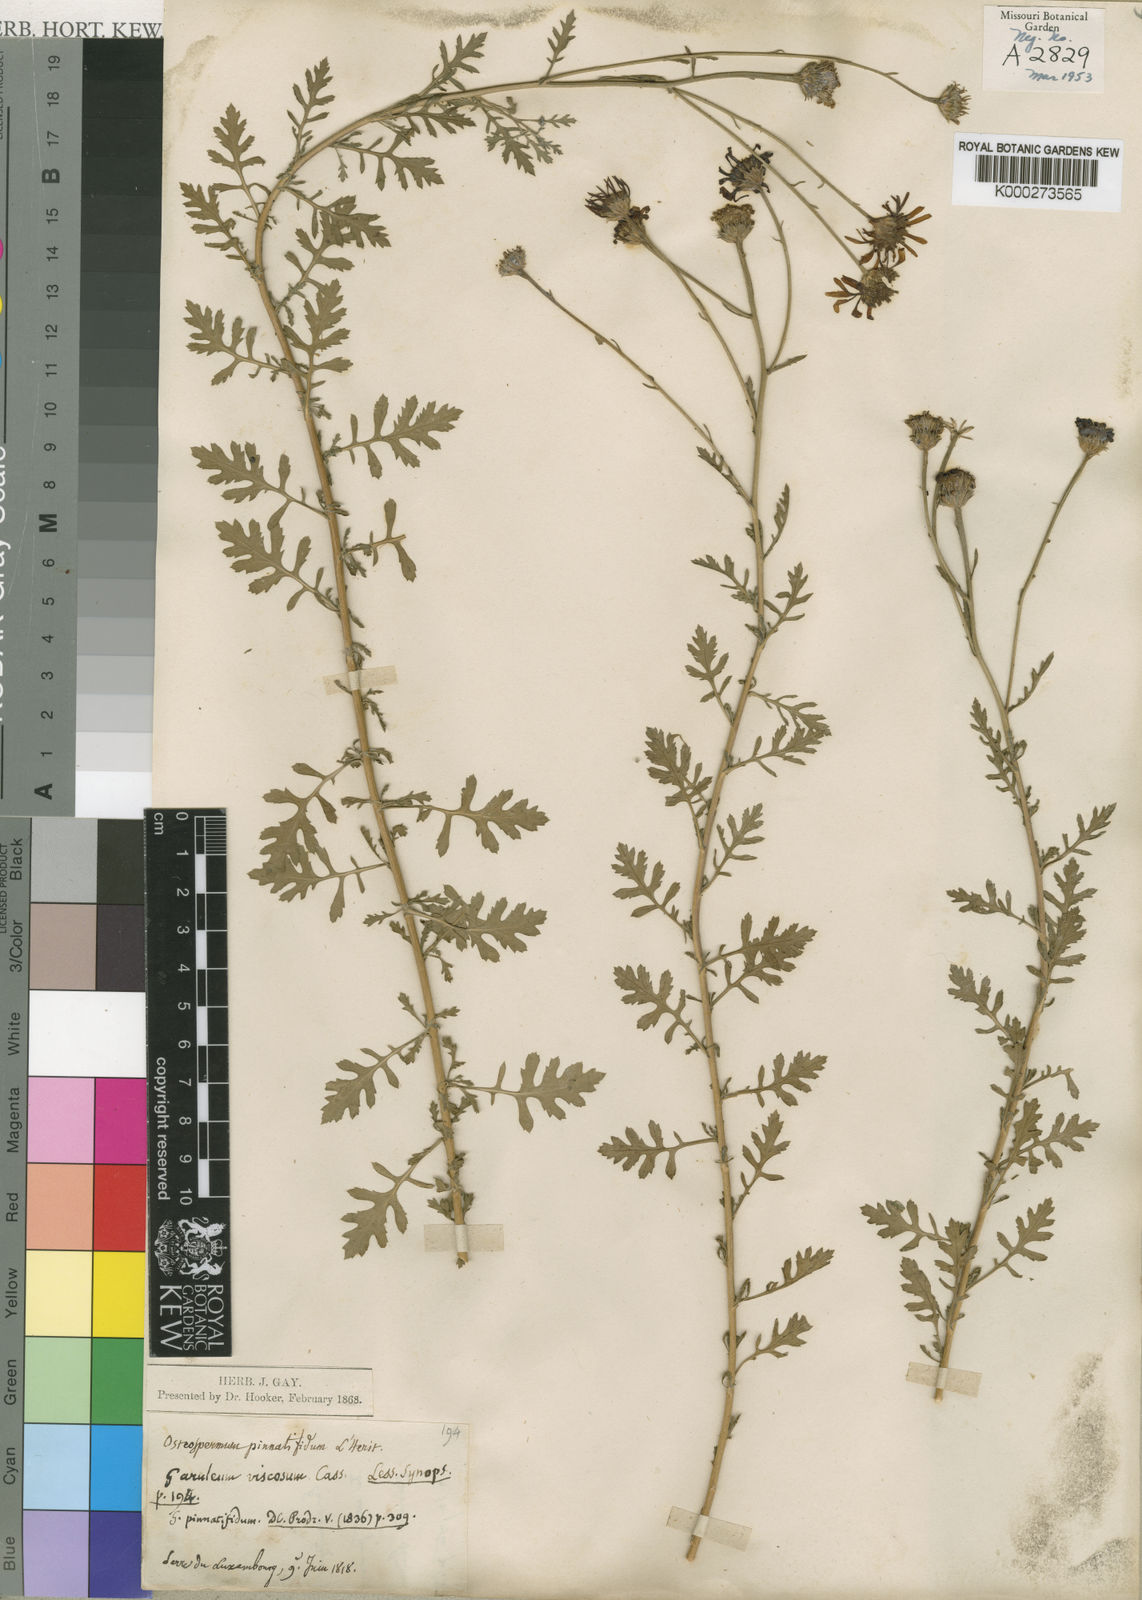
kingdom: Plantae
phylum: Tracheophyta
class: Magnoliopsida
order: Asterales
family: Asteraceae
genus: Garuleum
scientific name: Garuleum pinnatifidum
